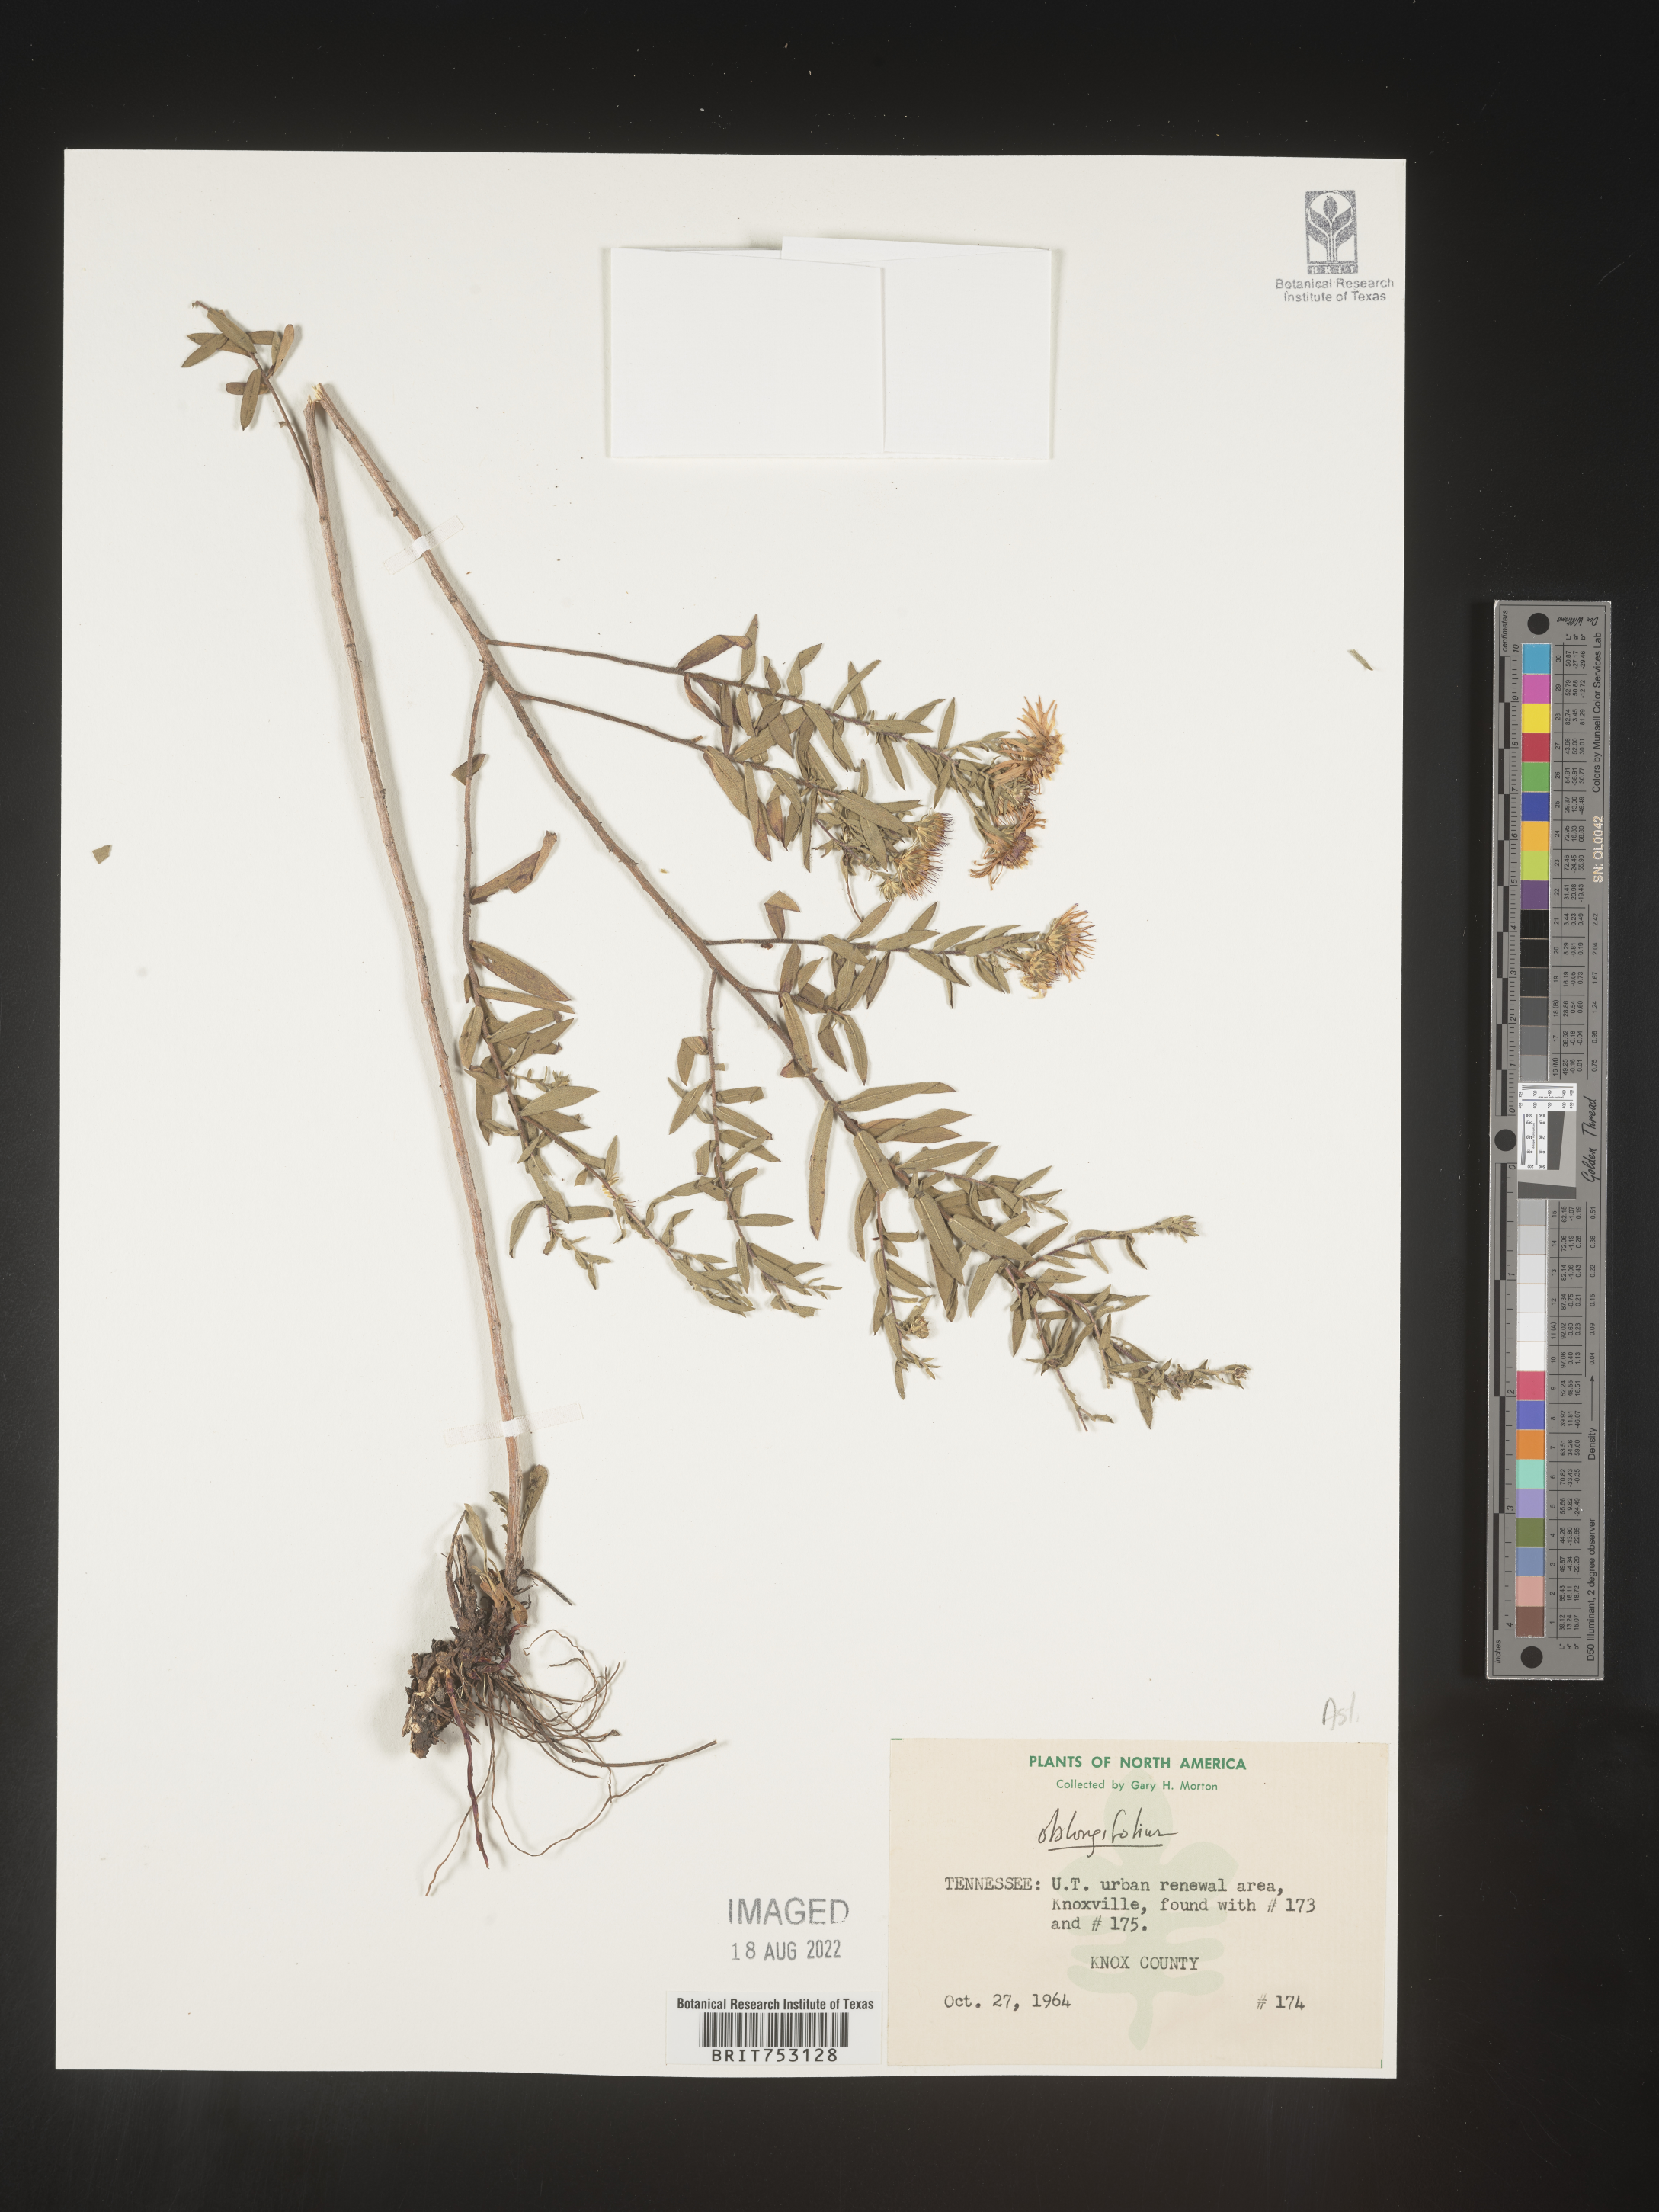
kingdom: Plantae
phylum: Tracheophyta
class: Magnoliopsida
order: Asterales
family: Asteraceae
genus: Symphyotrichum
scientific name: Symphyotrichum oblongifolium
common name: Aromatic aster
